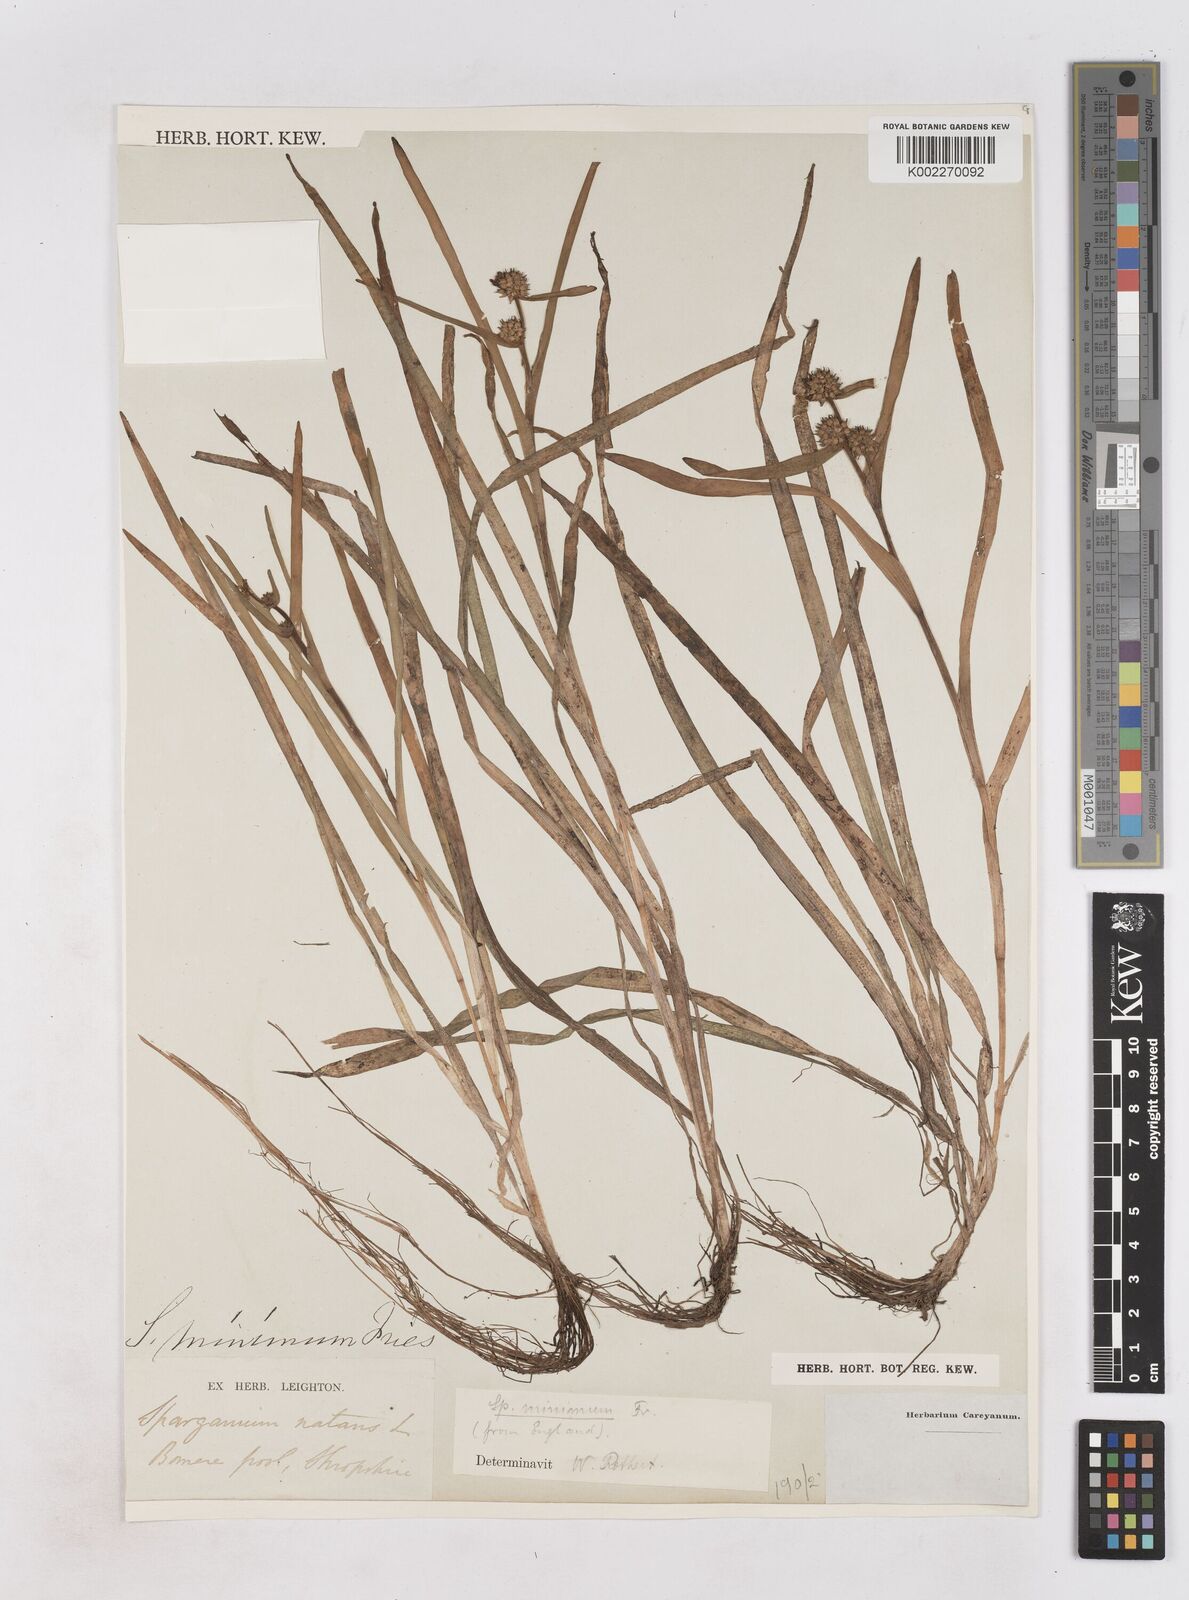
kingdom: Plantae
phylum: Tracheophyta
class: Liliopsida
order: Poales
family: Typhaceae
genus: Sparganium
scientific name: Sparganium natans
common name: Least bur-reed
